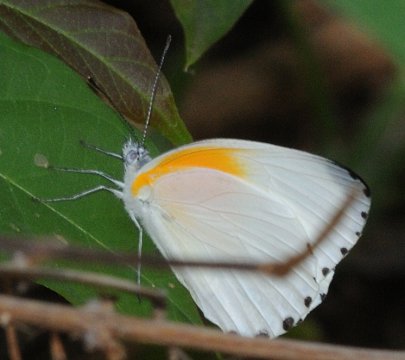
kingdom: Animalia
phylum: Arthropoda
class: Insecta
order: Lepidoptera
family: Pieridae
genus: Mylothris
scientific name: Mylothris rueppellii
